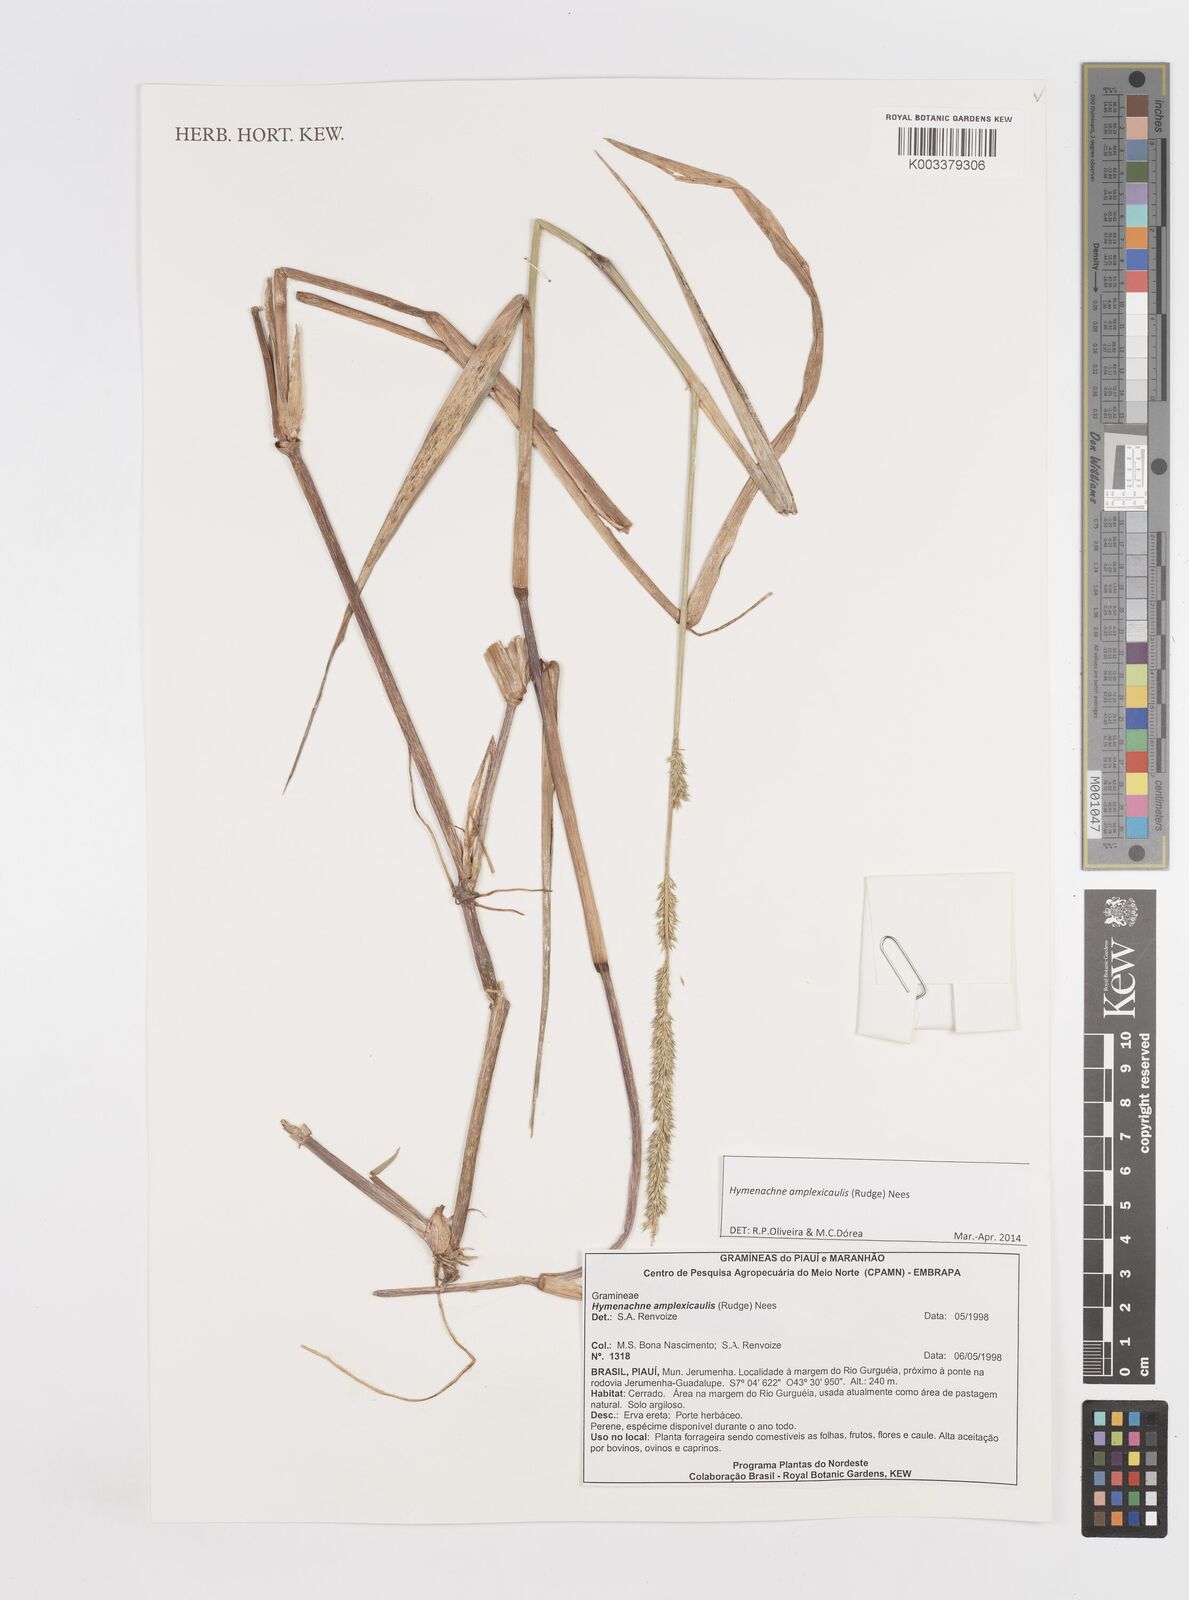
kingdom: Plantae
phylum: Tracheophyta
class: Liliopsida
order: Poales
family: Poaceae
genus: Hymenachne
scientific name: Hymenachne amplexicaulis
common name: Olive hymenachne
